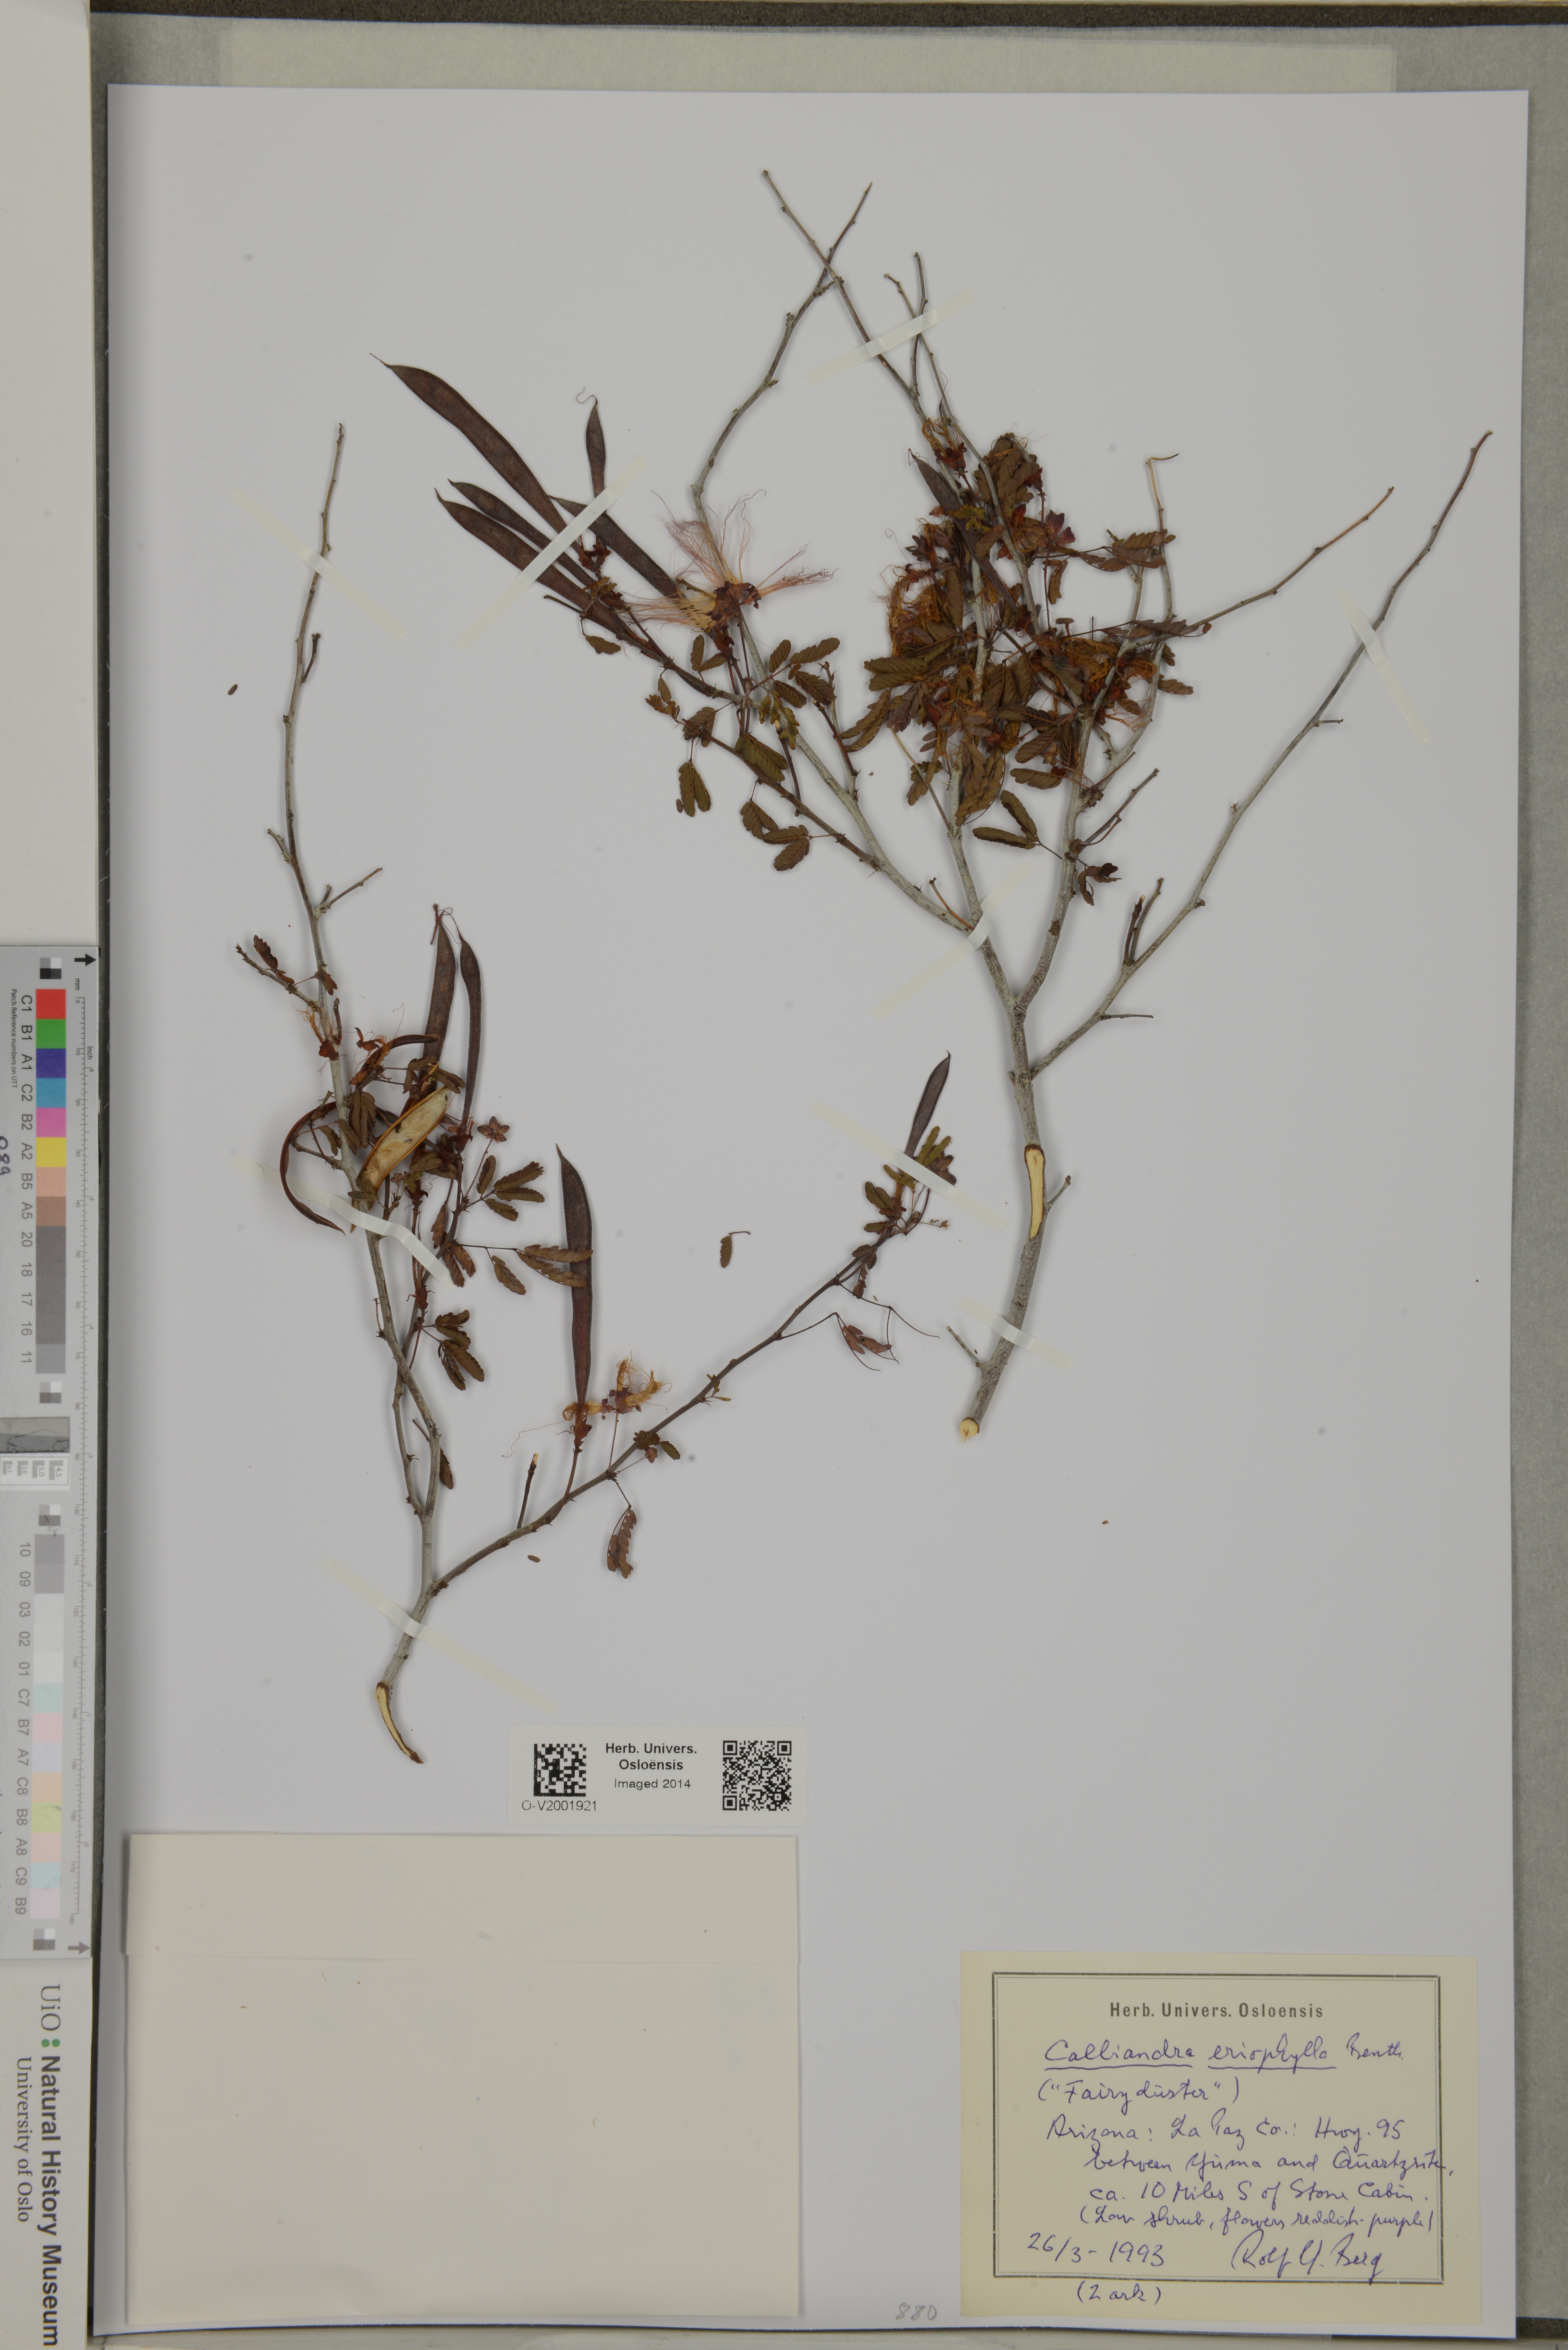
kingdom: Plantae
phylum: Tracheophyta
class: Magnoliopsida
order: Fabales
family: Fabaceae
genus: Calliandra
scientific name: Calliandra eriophylla
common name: Fairy-duster
